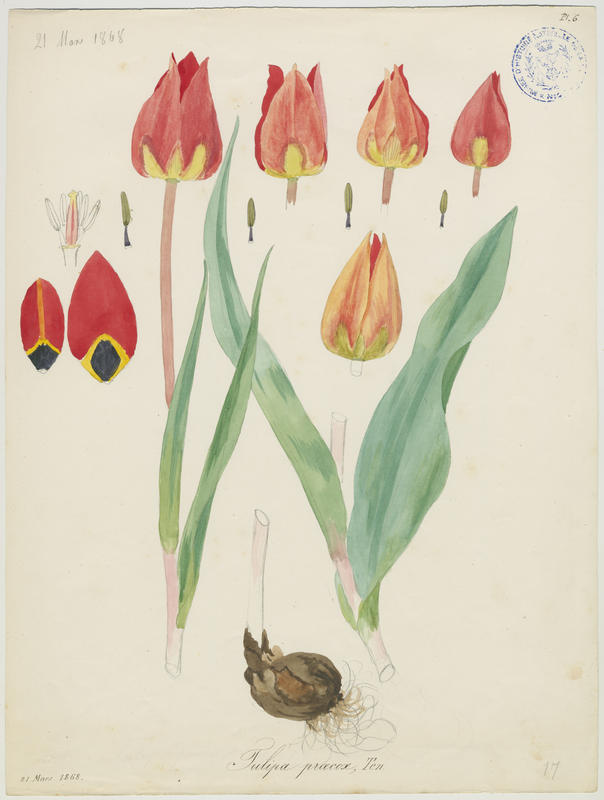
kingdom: Plantae
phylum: Tracheophyta
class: Liliopsida
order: Liliales
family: Liliaceae
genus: Tulipa
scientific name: Tulipa agenensis
